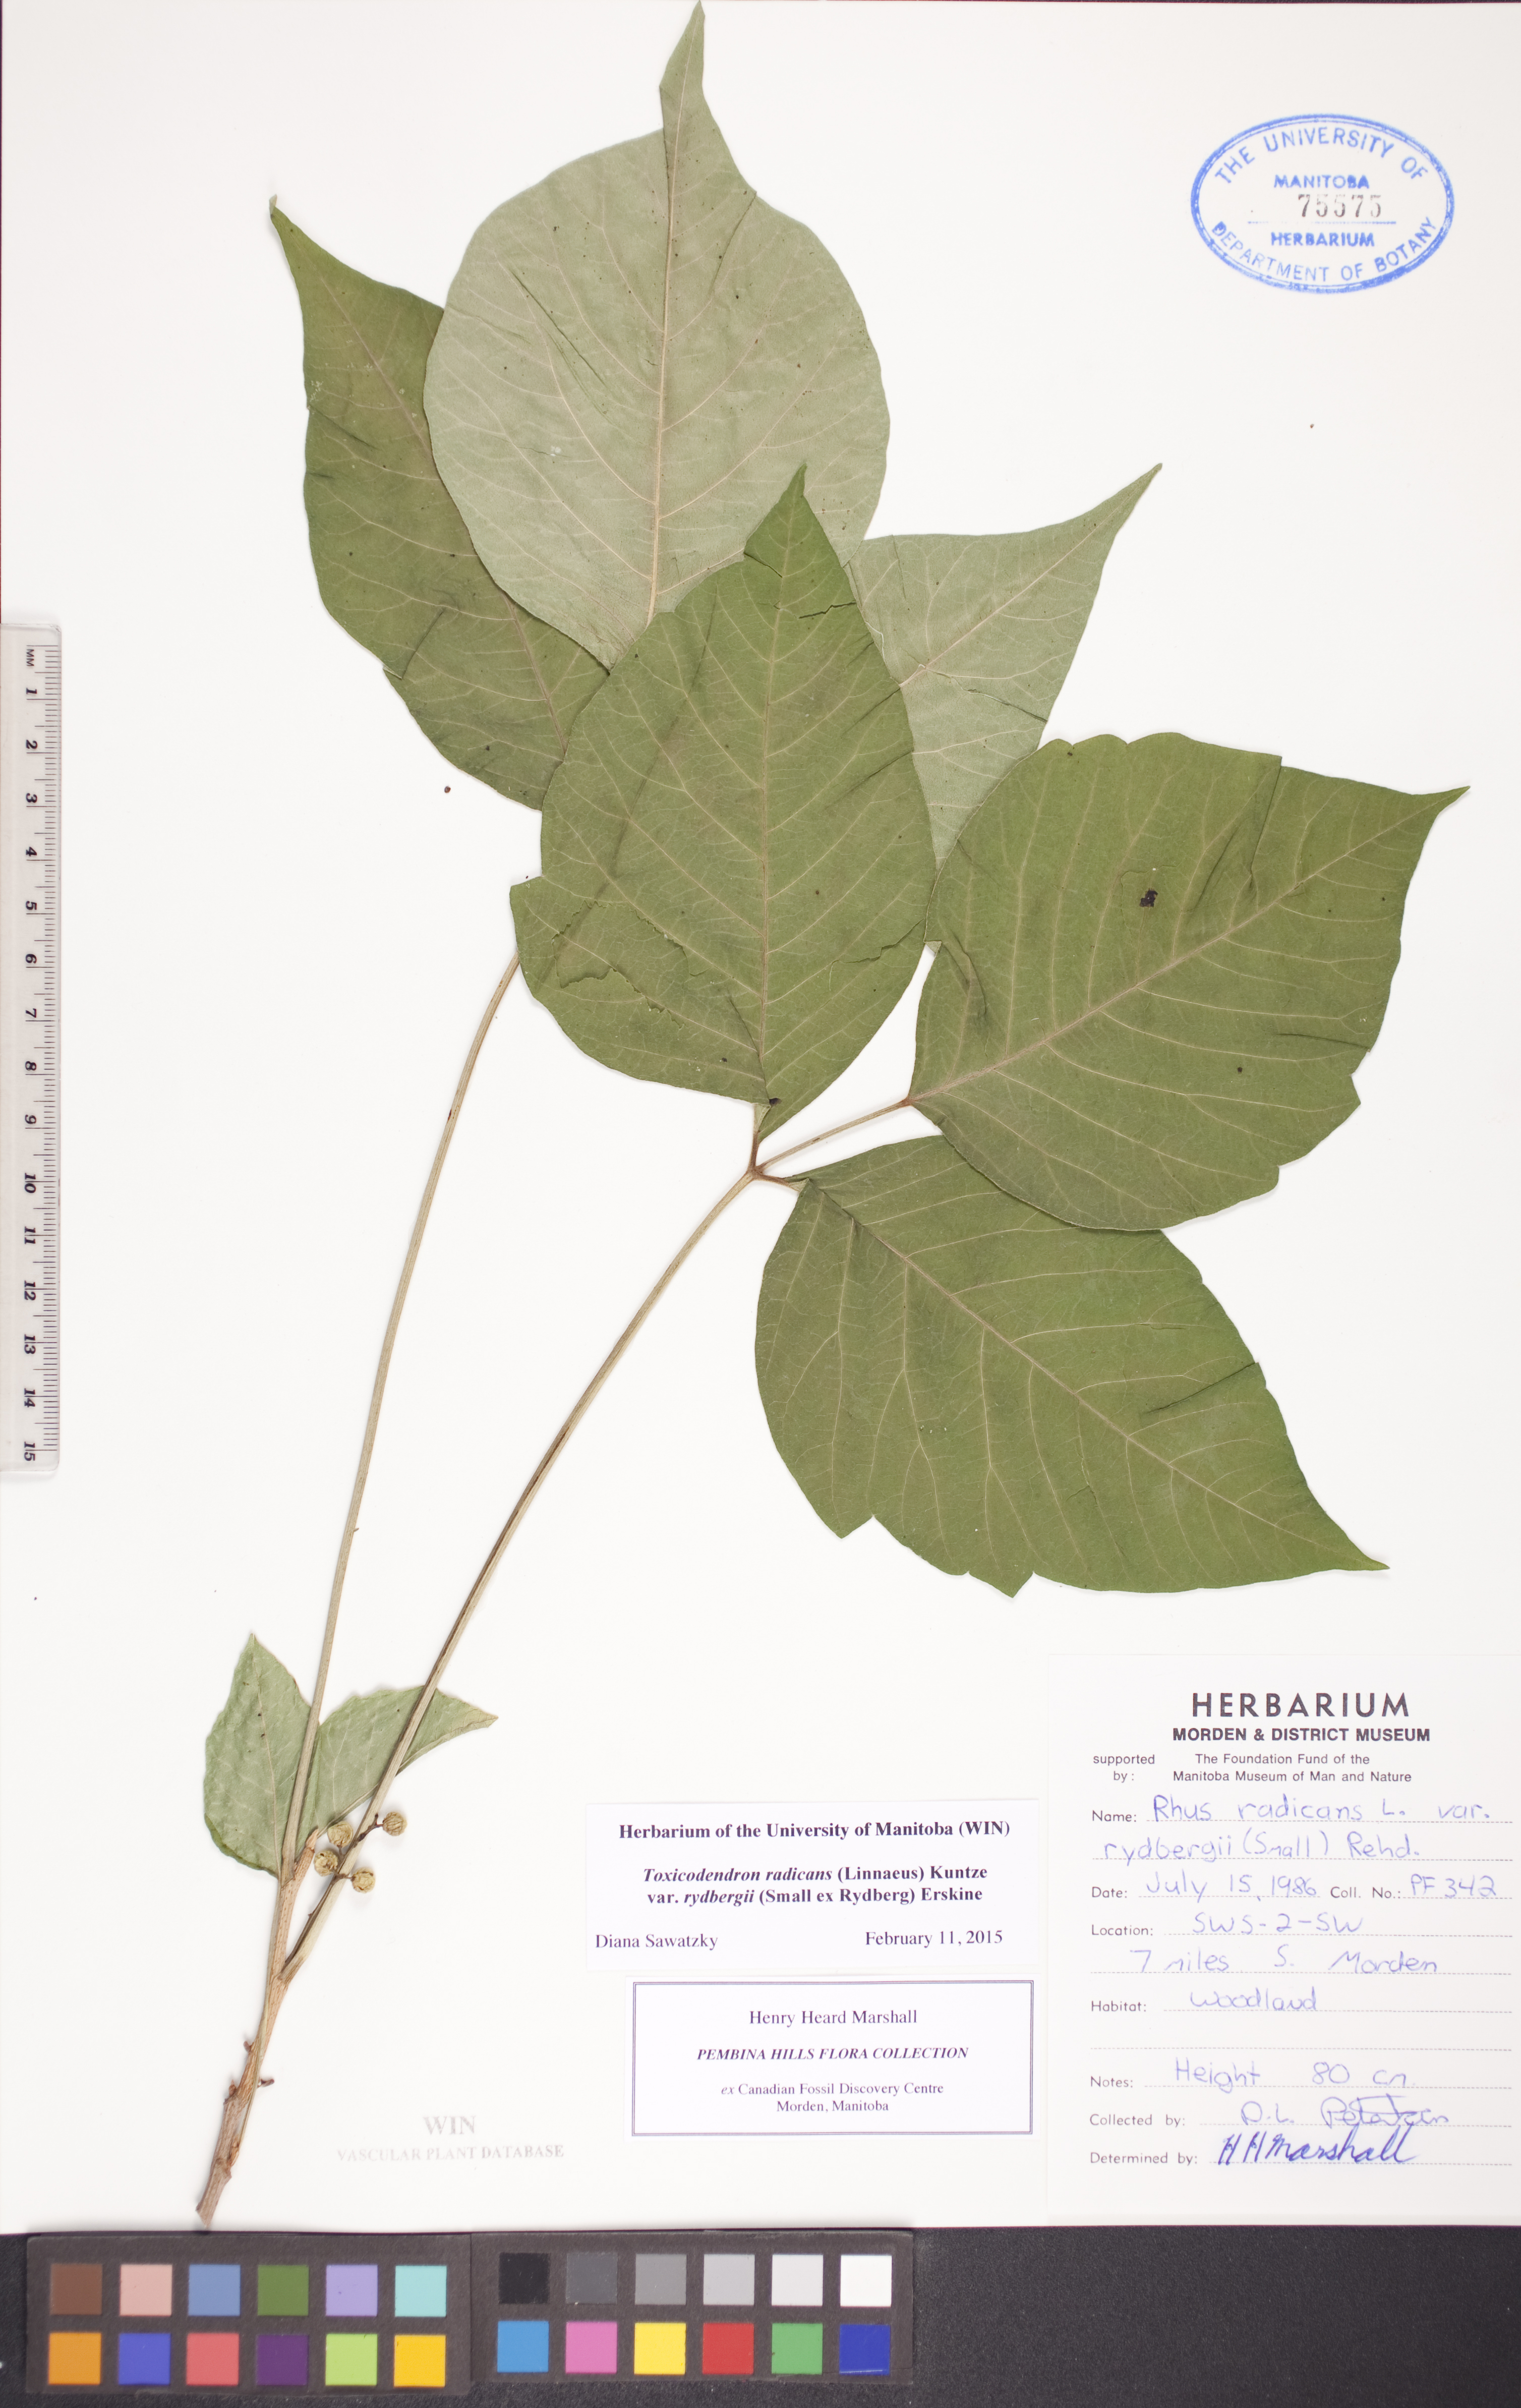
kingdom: Plantae
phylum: Tracheophyta
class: Magnoliopsida
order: Sapindales
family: Anacardiaceae
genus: Toxicodendron
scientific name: Toxicodendron rydbergii
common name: Rydberg's poison-ivy
